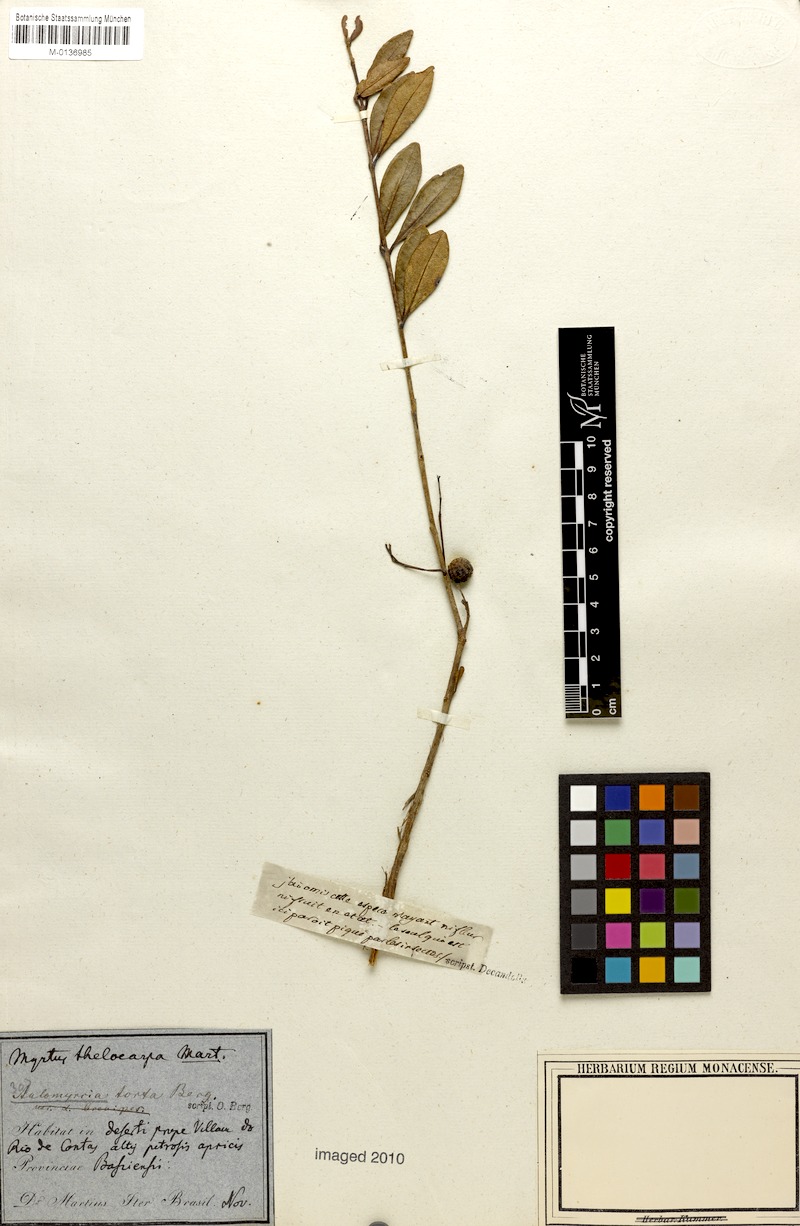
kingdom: Plantae
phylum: Tracheophyta
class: Magnoliopsida
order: Myrtales
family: Myrtaceae
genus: Myrcia
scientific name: Myrcia guianensis
